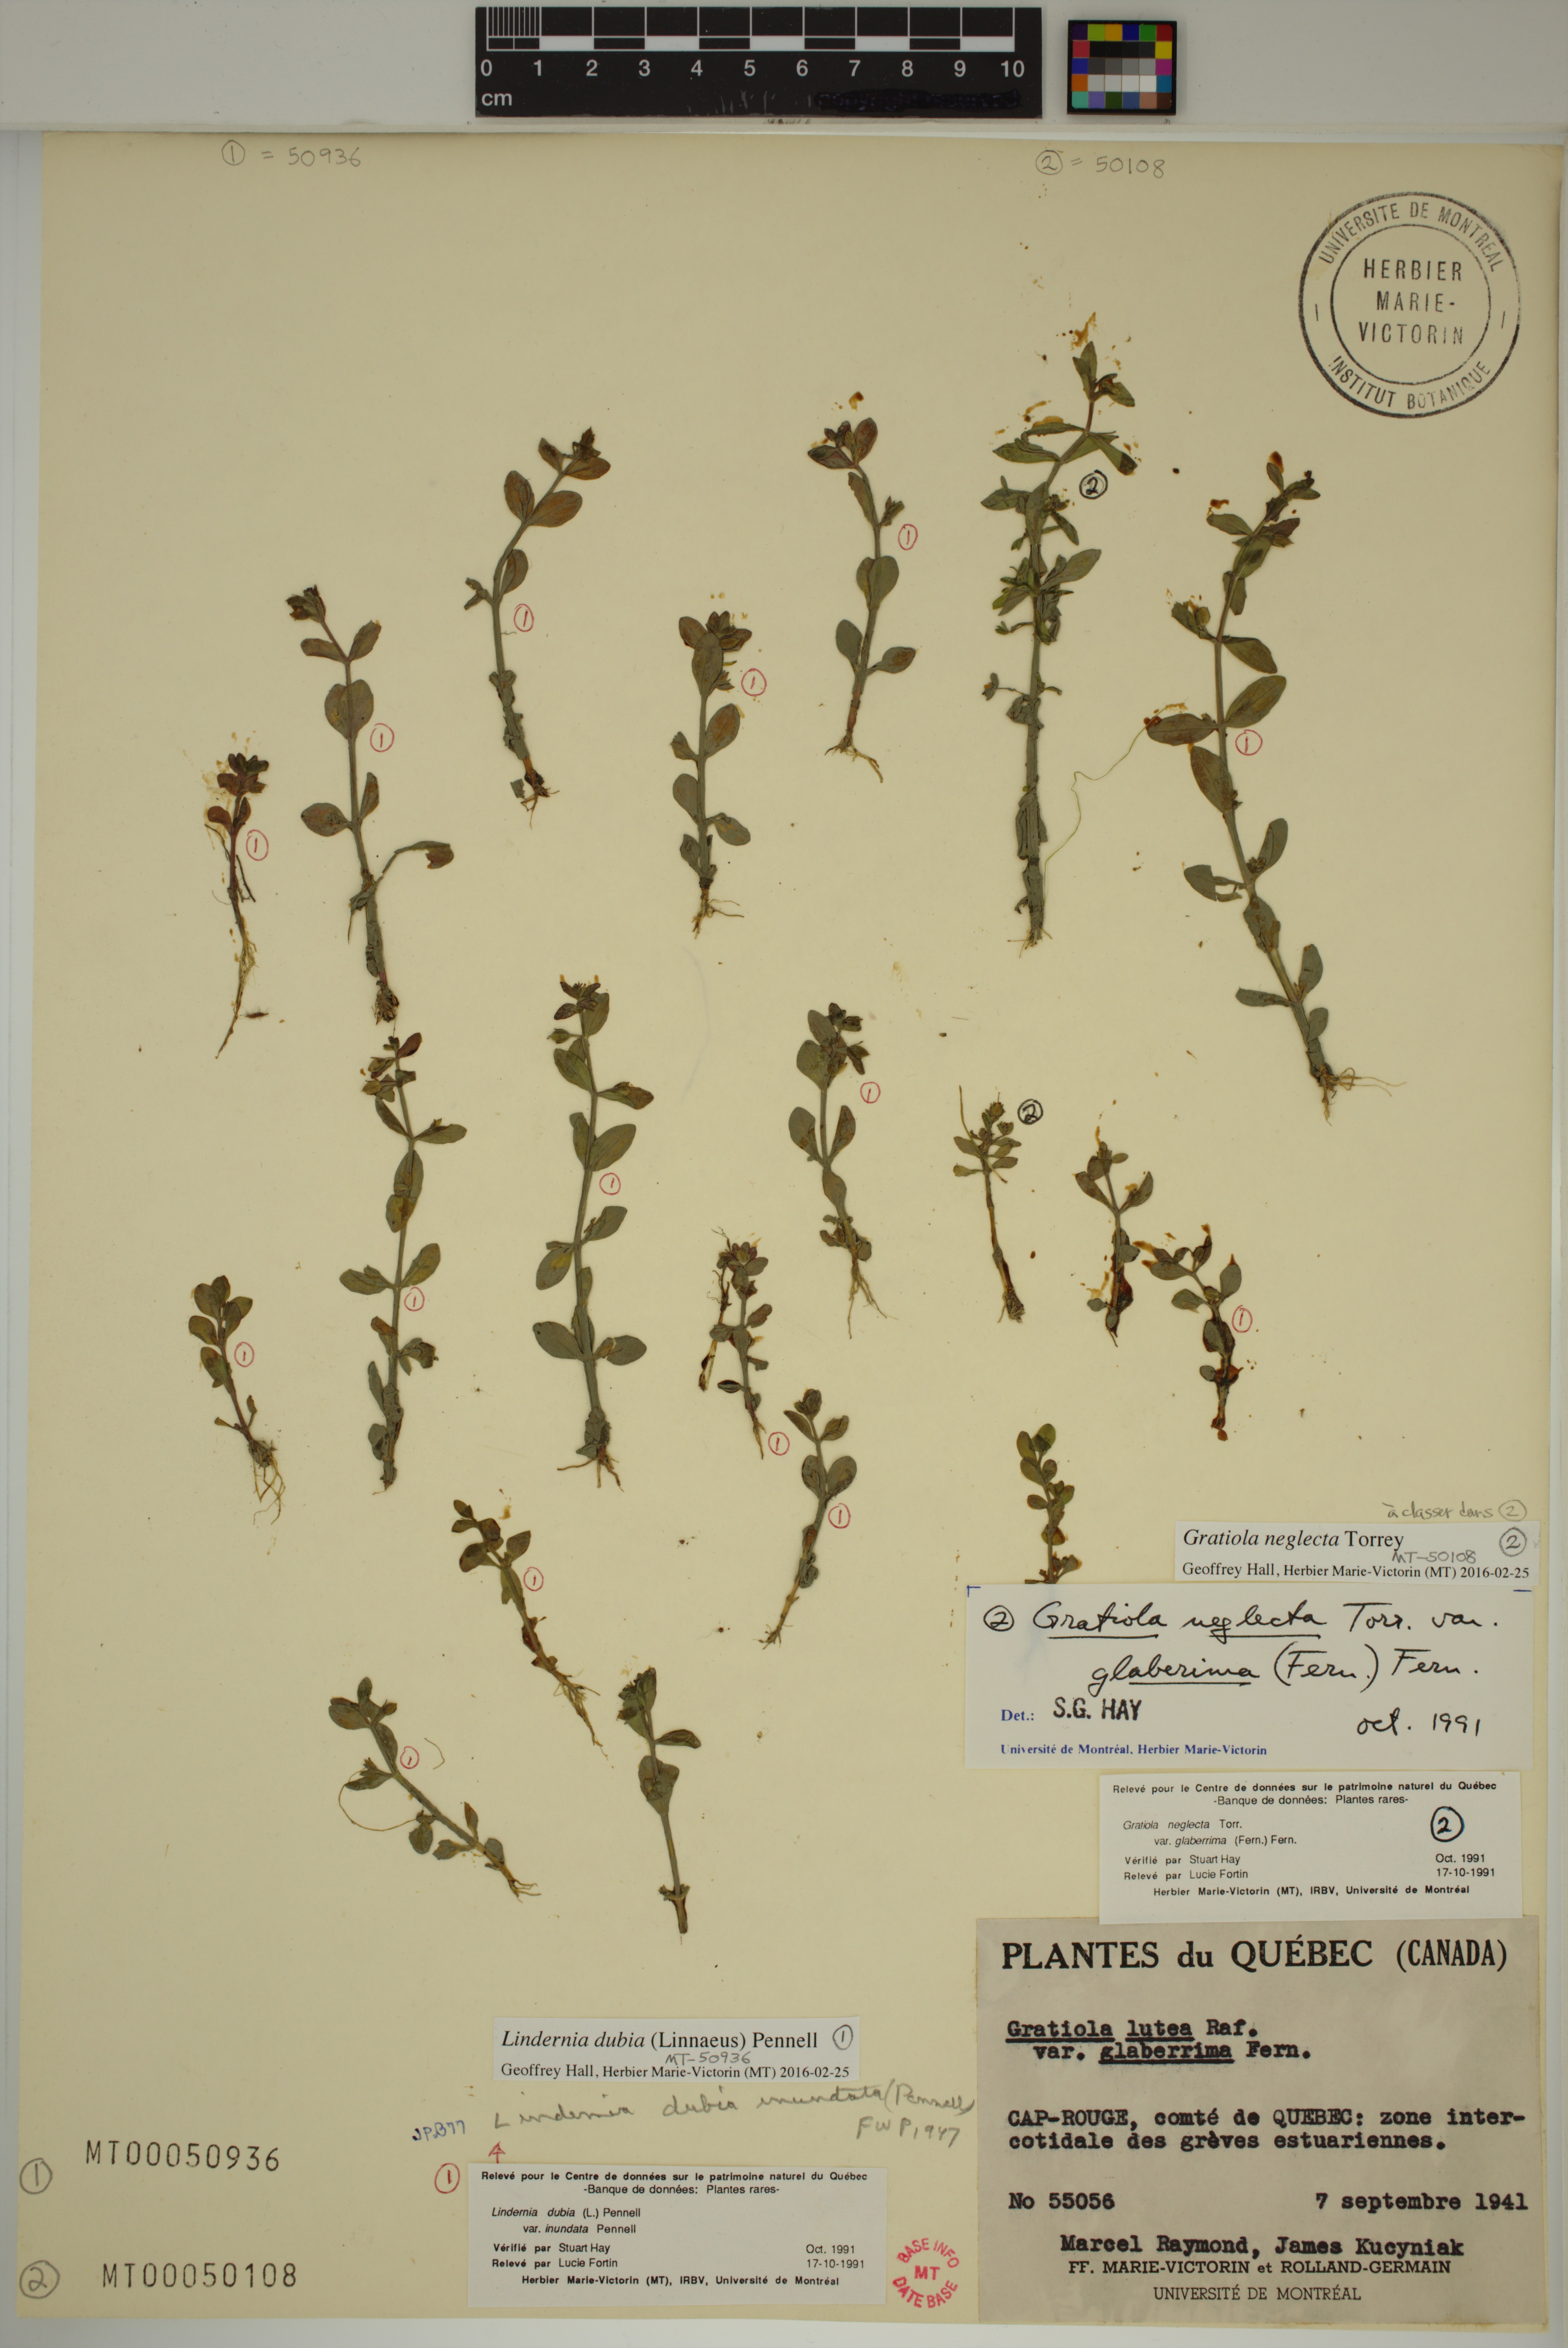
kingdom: Plantae
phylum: Tracheophyta
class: Magnoliopsida
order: Lamiales
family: Linderniaceae
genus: Lindernia
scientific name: Lindernia dubia
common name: Annual false pimpernel
